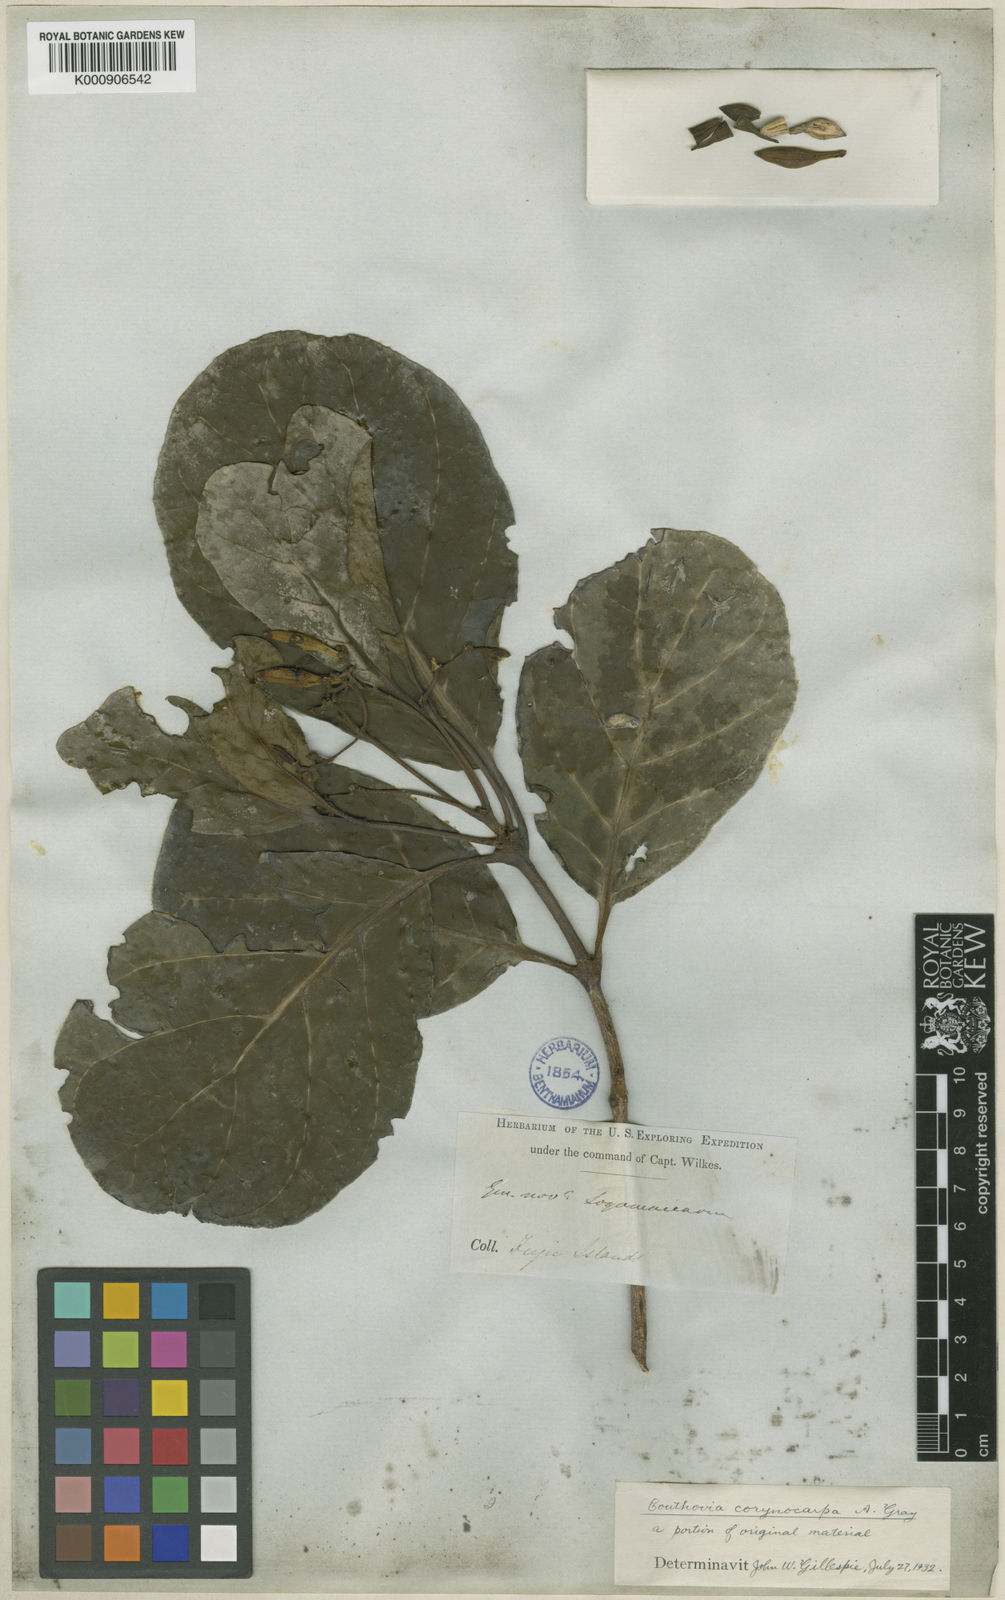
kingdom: Plantae
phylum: Tracheophyta
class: Magnoliopsida
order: Gentianales
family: Loganiaceae
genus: Neuburgia
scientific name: Neuburgia corynocarpa
